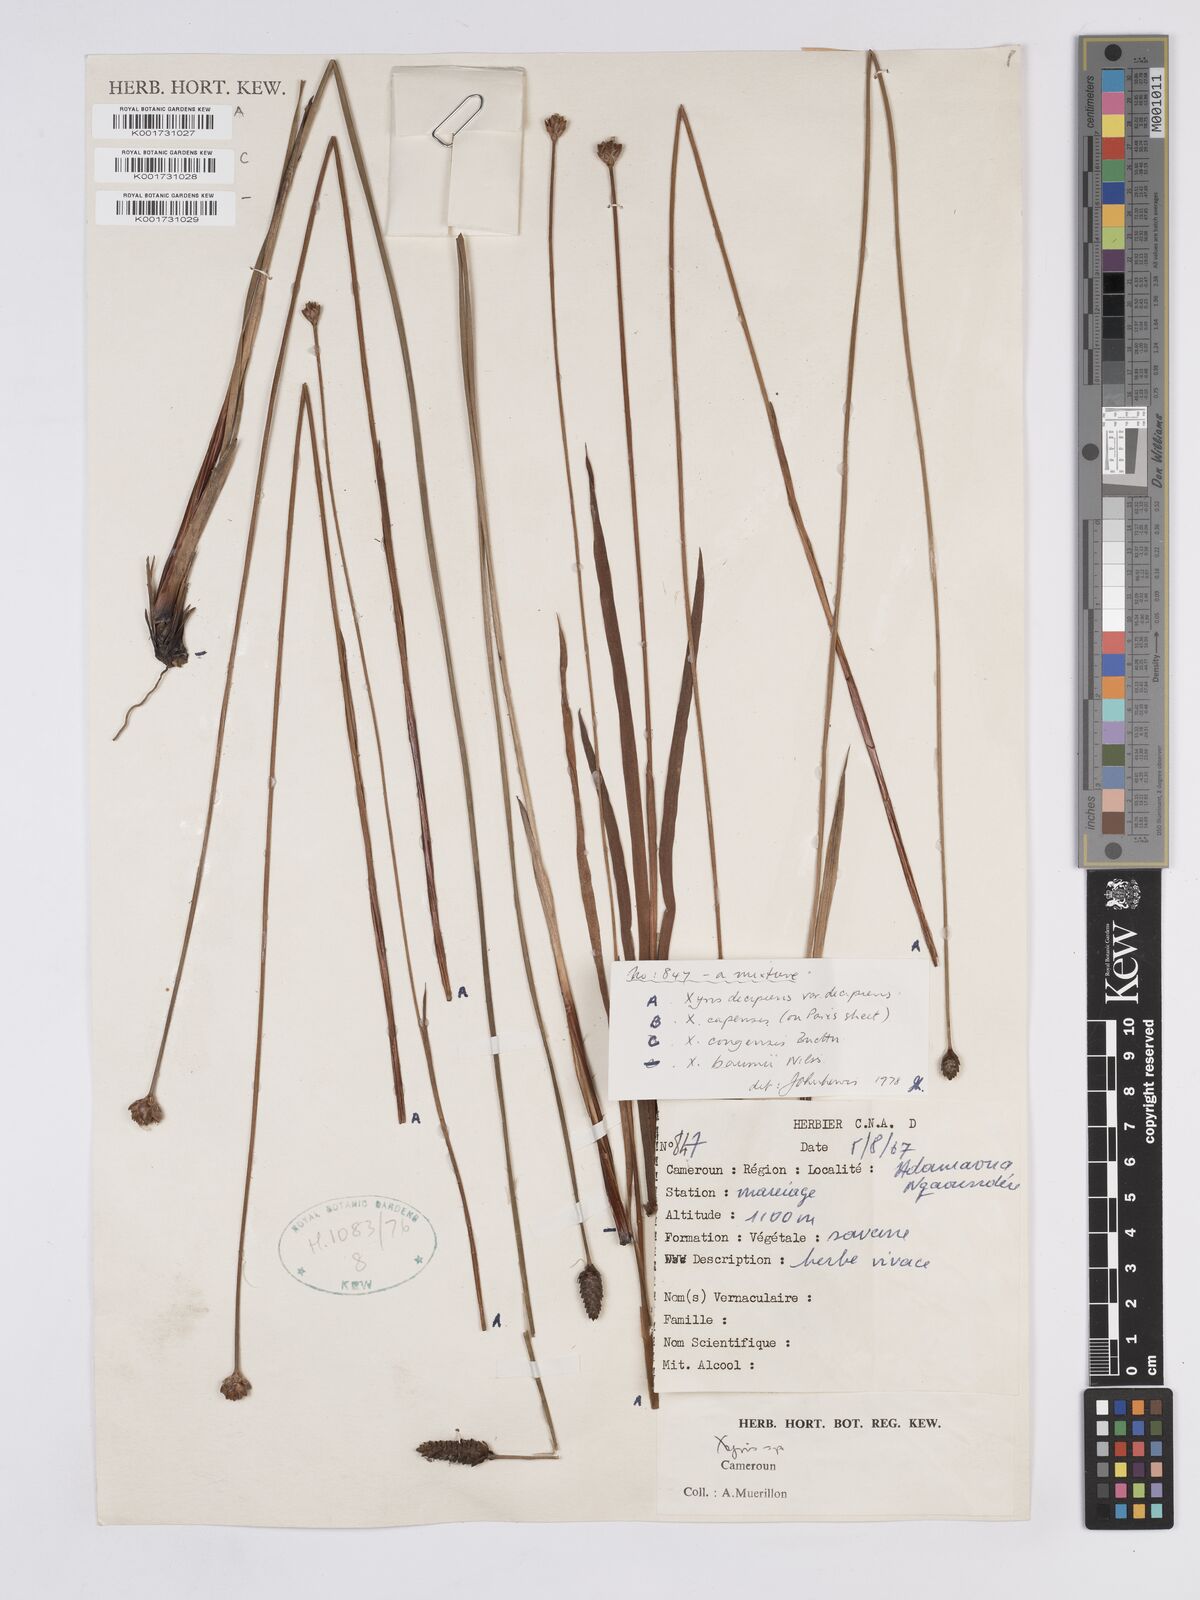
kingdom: Plantae
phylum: Tracheophyta
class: Liliopsida
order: Poales
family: Xyridaceae
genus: Xyris
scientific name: Xyris decipiens
